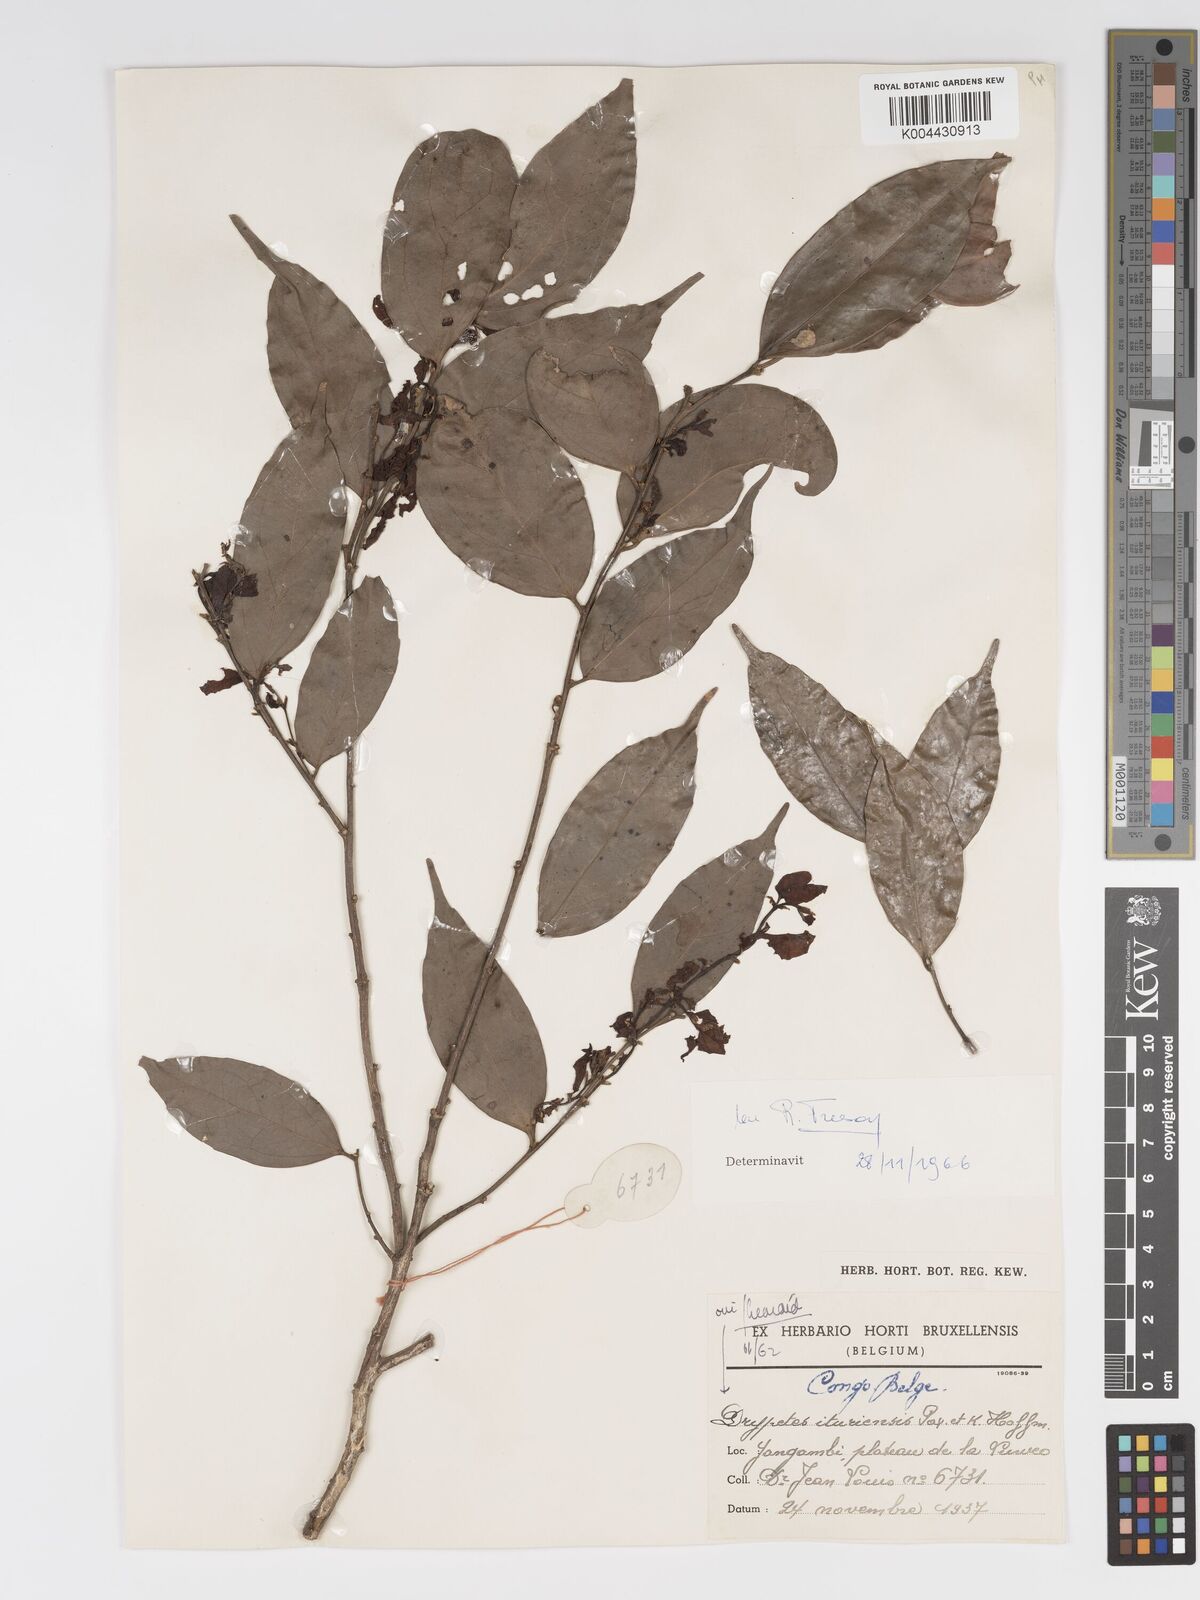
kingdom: Plantae
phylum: Tracheophyta
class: Magnoliopsida
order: Malpighiales
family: Putranjivaceae
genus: Drypetes
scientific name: Drypetes ituriensis
